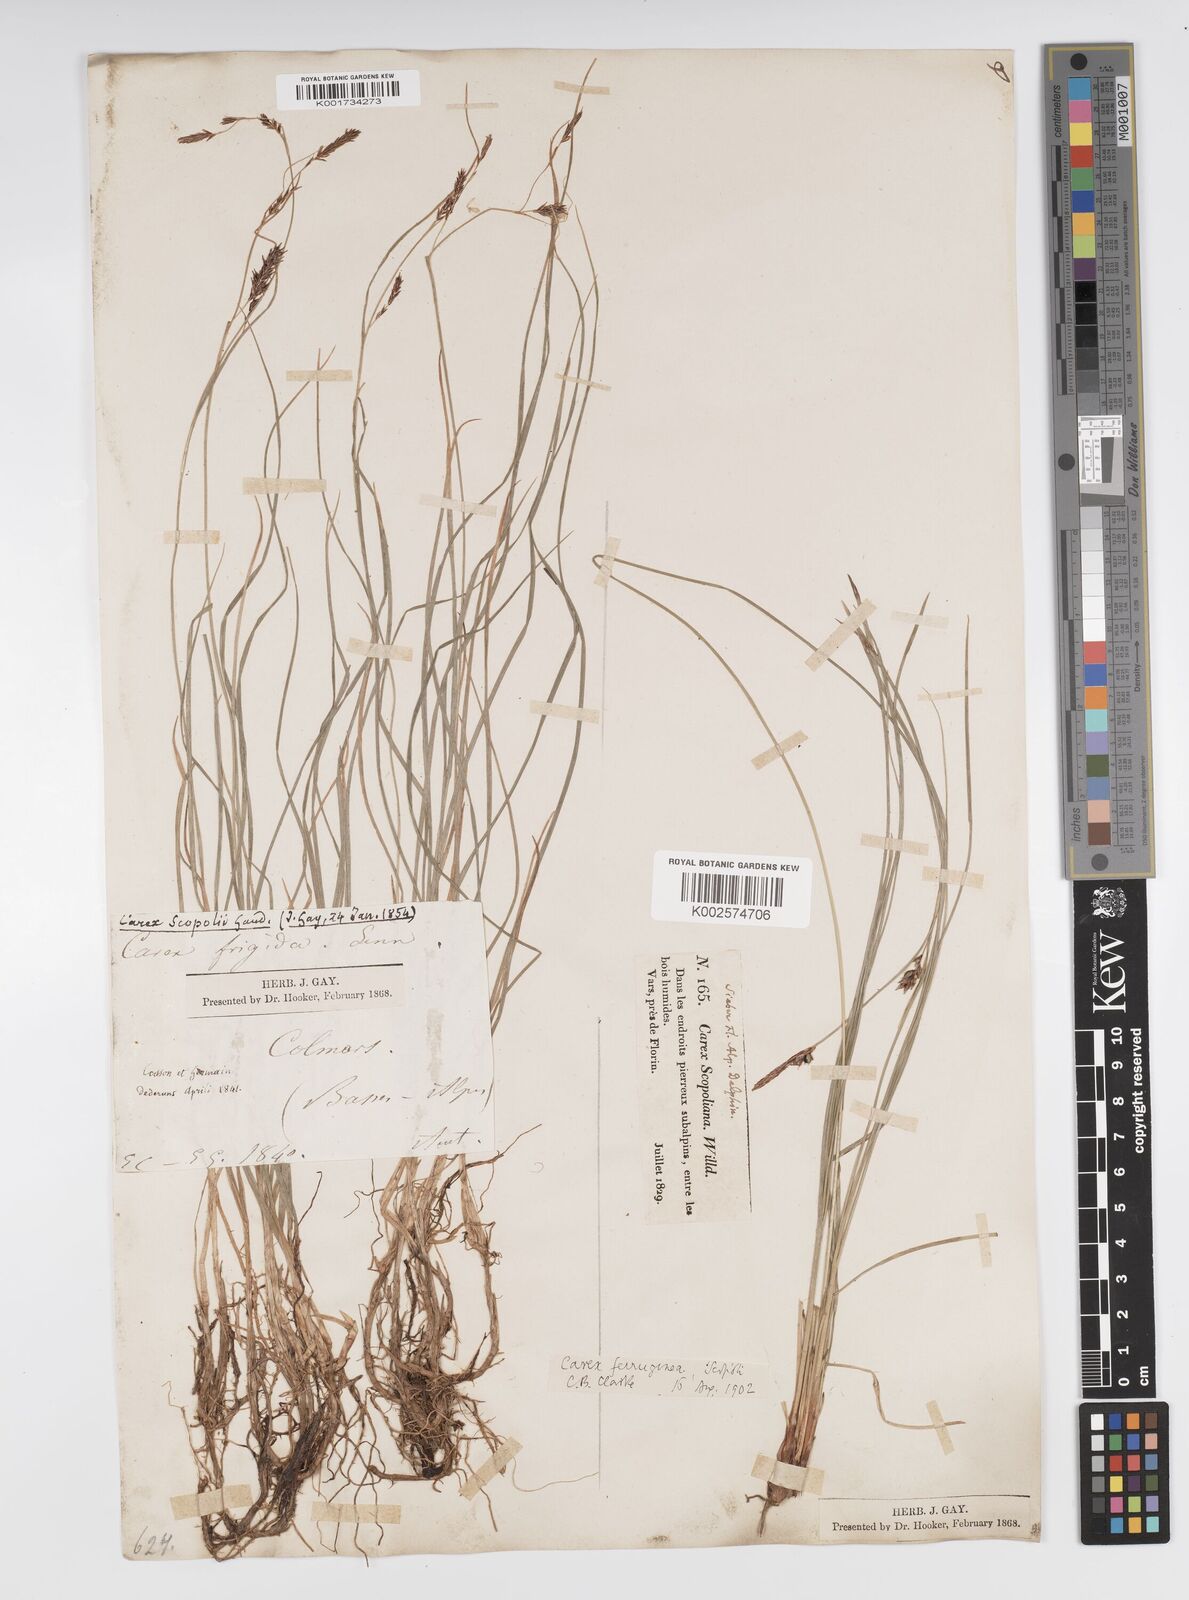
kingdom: Plantae
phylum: Tracheophyta
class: Liliopsida
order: Poales
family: Cyperaceae
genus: Carex
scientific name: Carex ferruginea
